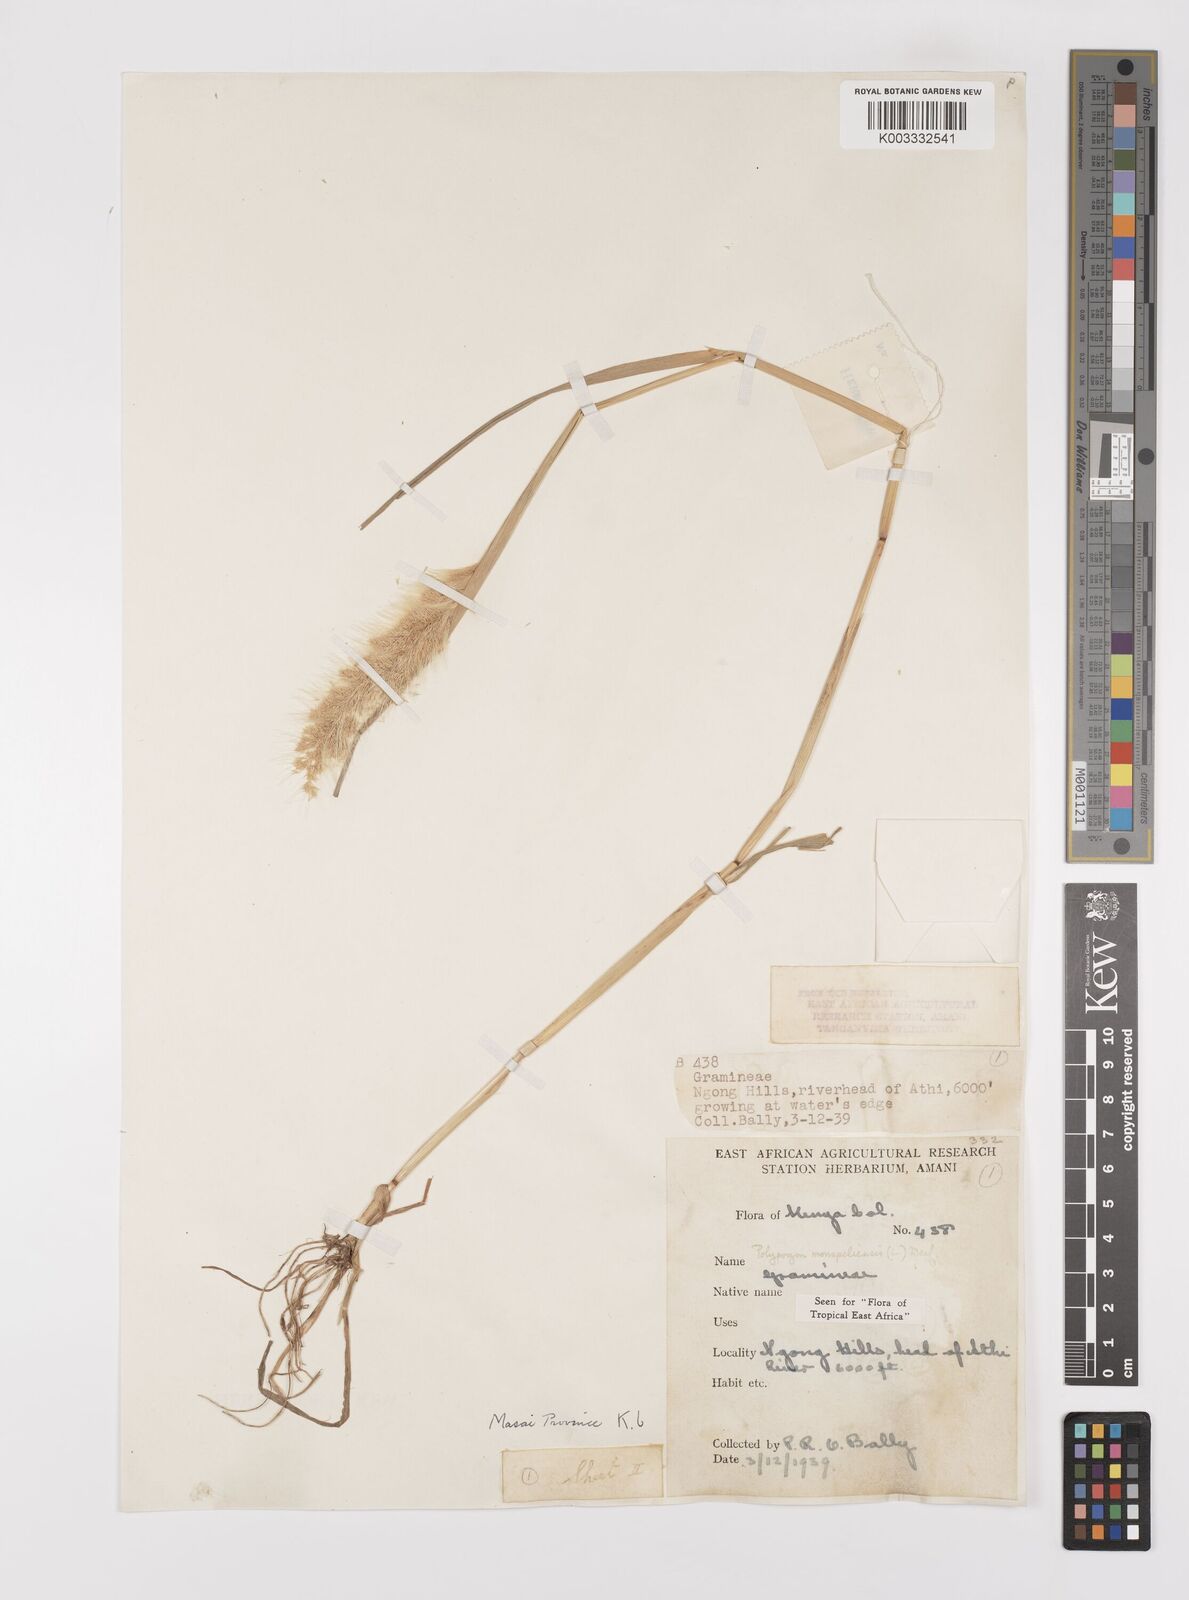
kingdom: Plantae
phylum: Tracheophyta
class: Liliopsida
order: Poales
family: Poaceae
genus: Polypogon
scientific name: Polypogon monspeliensis
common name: Annual rabbitsfoot grass
